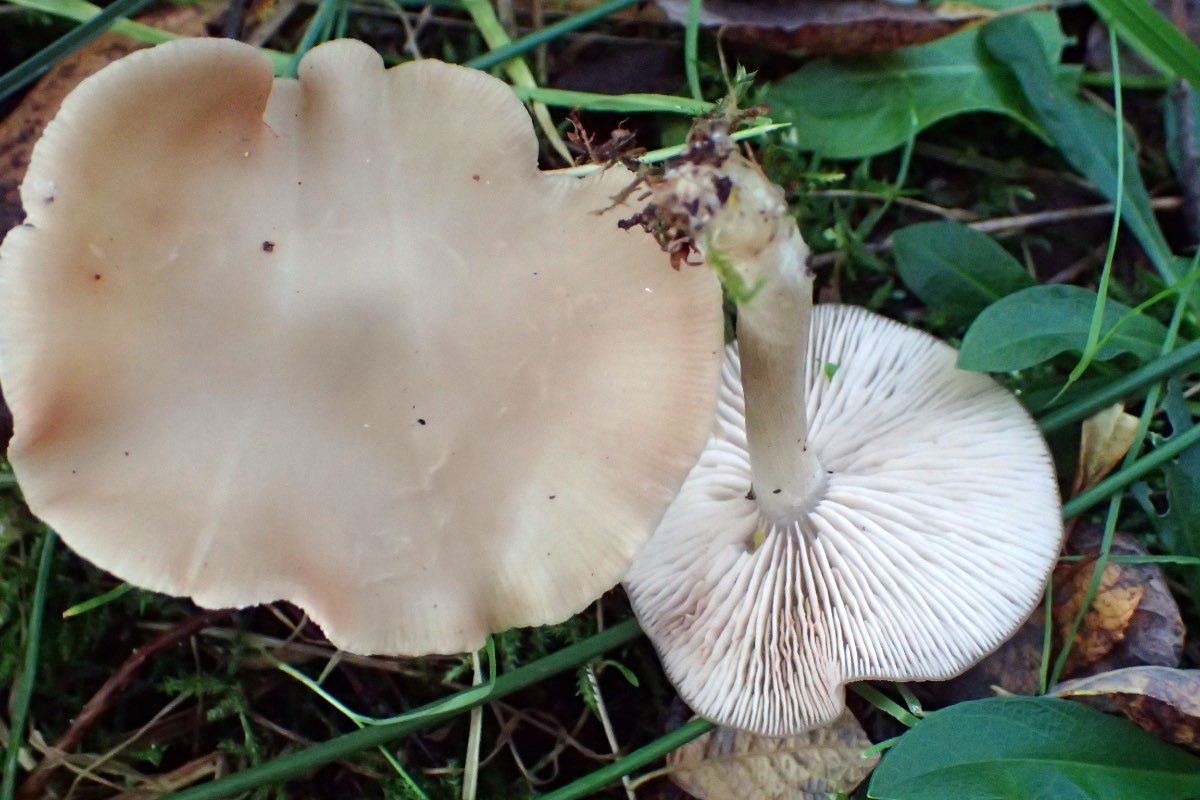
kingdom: Fungi
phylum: Basidiomycota
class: Agaricomycetes
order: Agaricales
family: Entolomataceae
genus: Entoloma
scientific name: Entoloma
